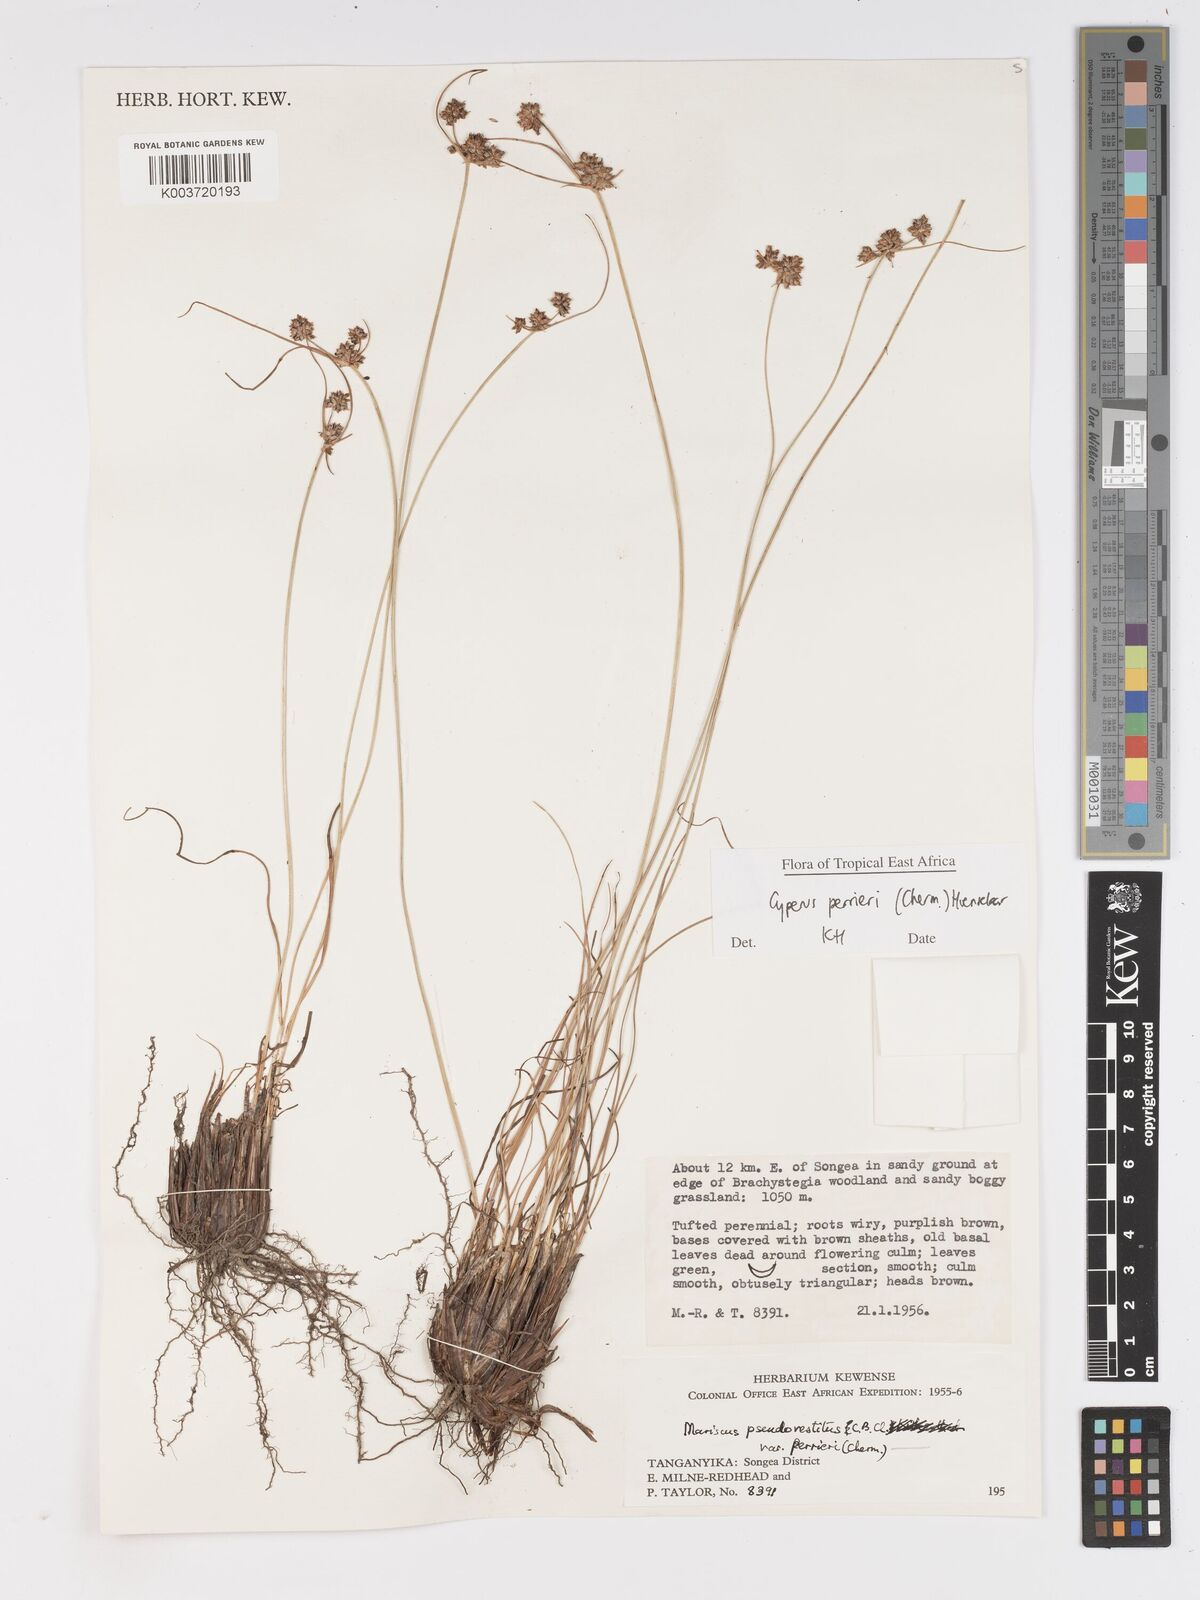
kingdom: Plantae
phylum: Tracheophyta
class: Liliopsida
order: Poales
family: Cyperaceae
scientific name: Cyperaceae
